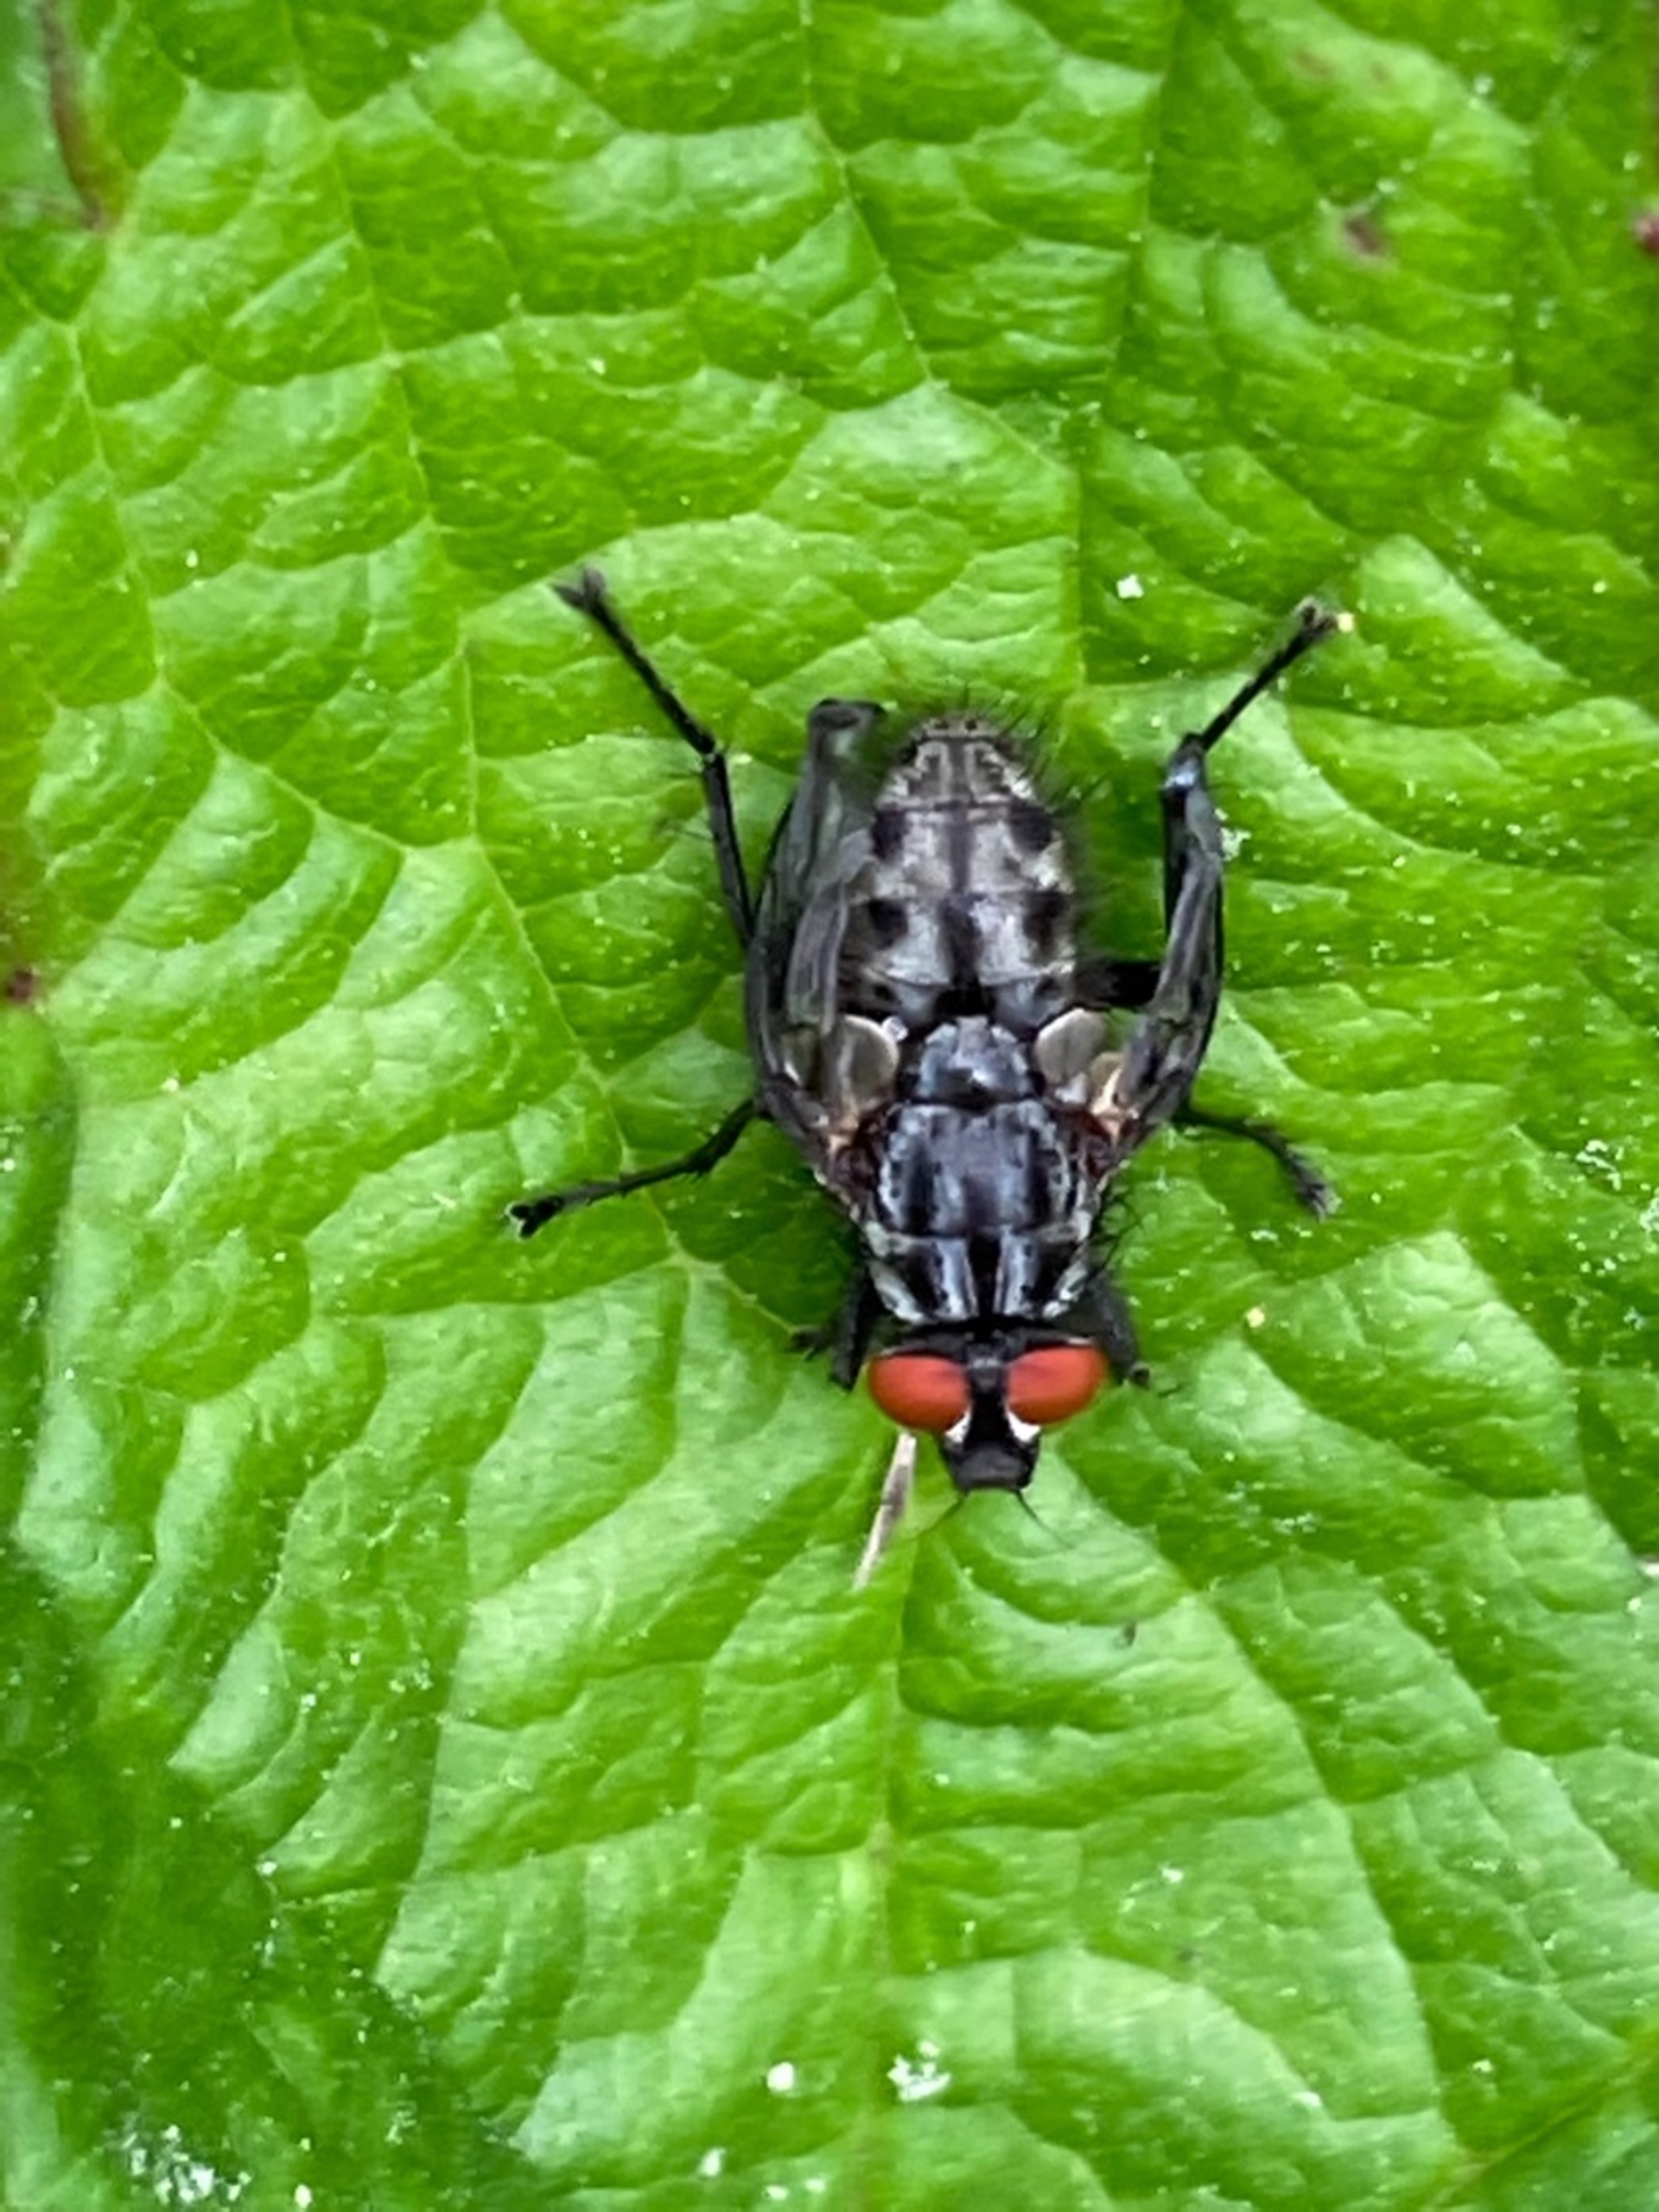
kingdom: Animalia
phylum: Arthropoda
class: Insecta
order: Diptera
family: Sarcophagidae
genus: Sarcophaga
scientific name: Sarcophaga
